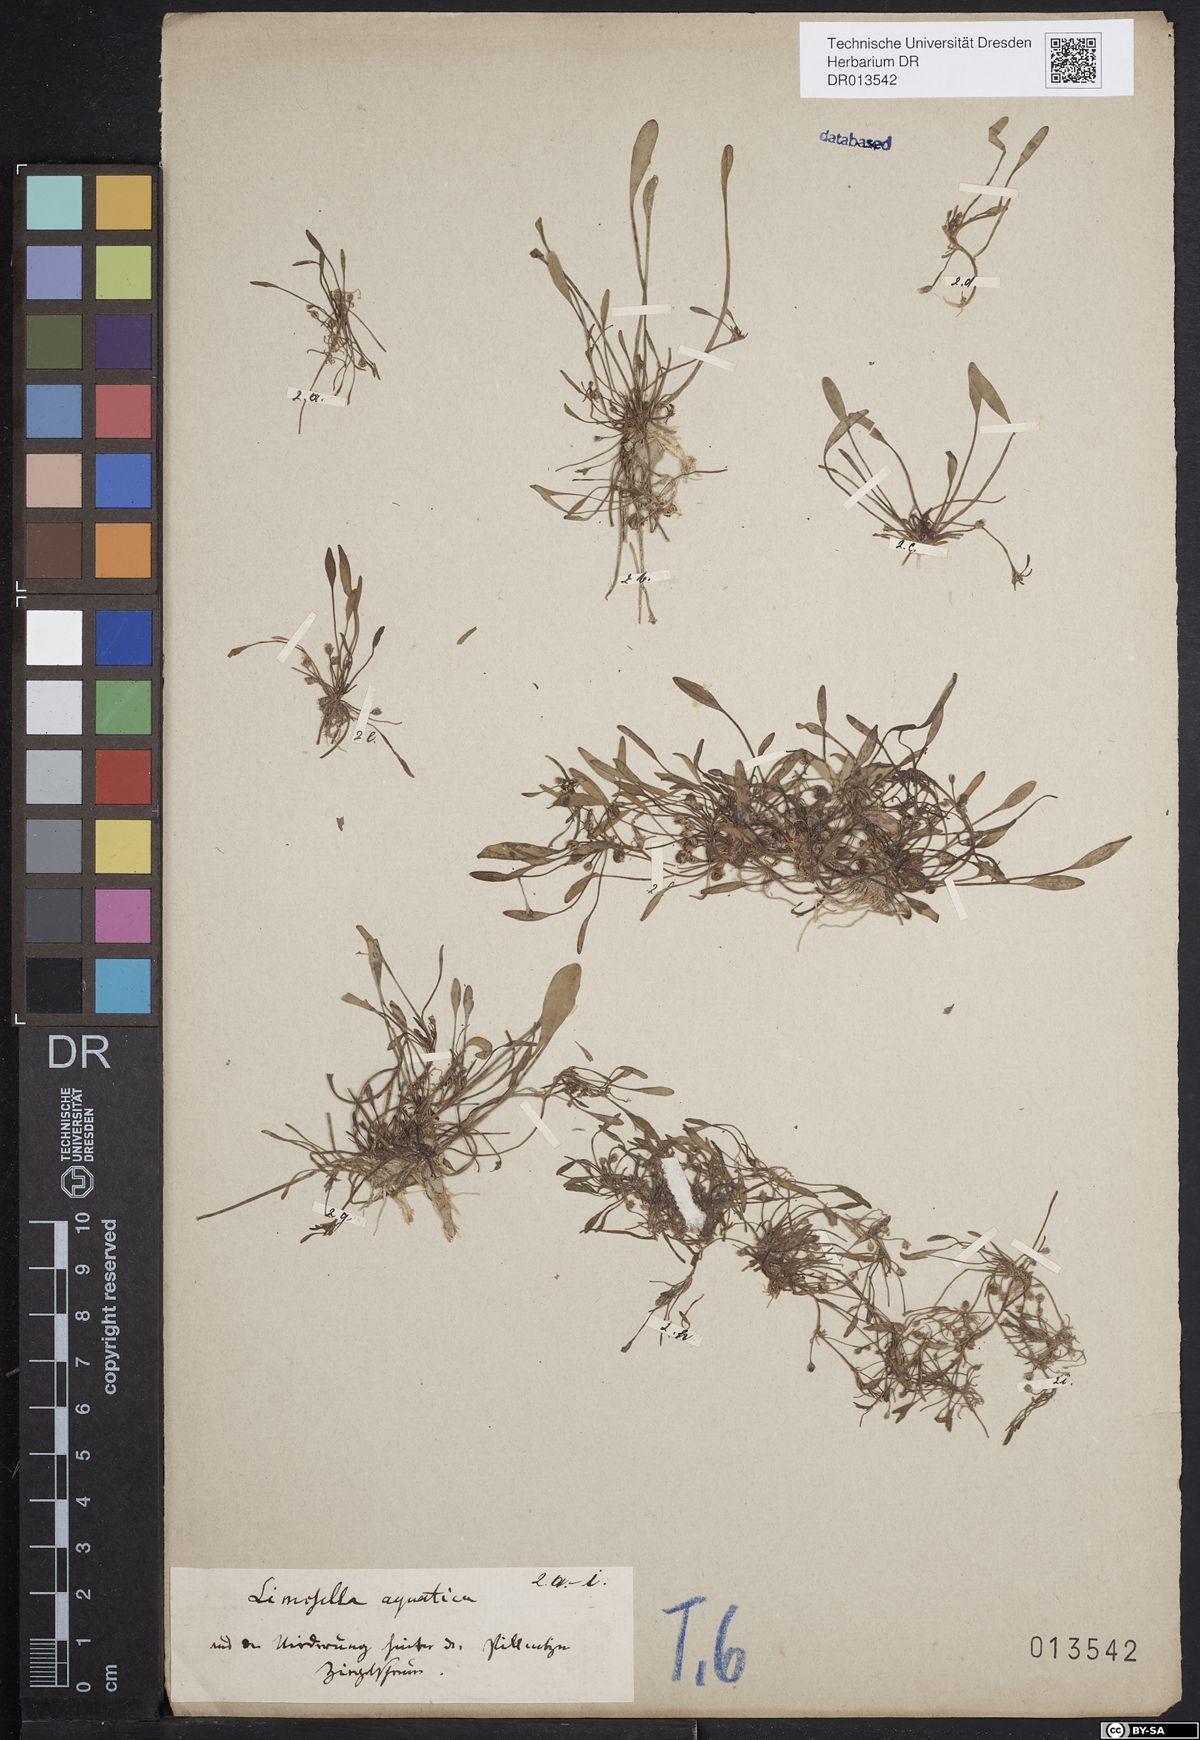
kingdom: Plantae
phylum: Tracheophyta
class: Magnoliopsida
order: Lamiales
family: Scrophulariaceae
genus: Limosella
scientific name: Limosella aquatica
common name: Mudwort
